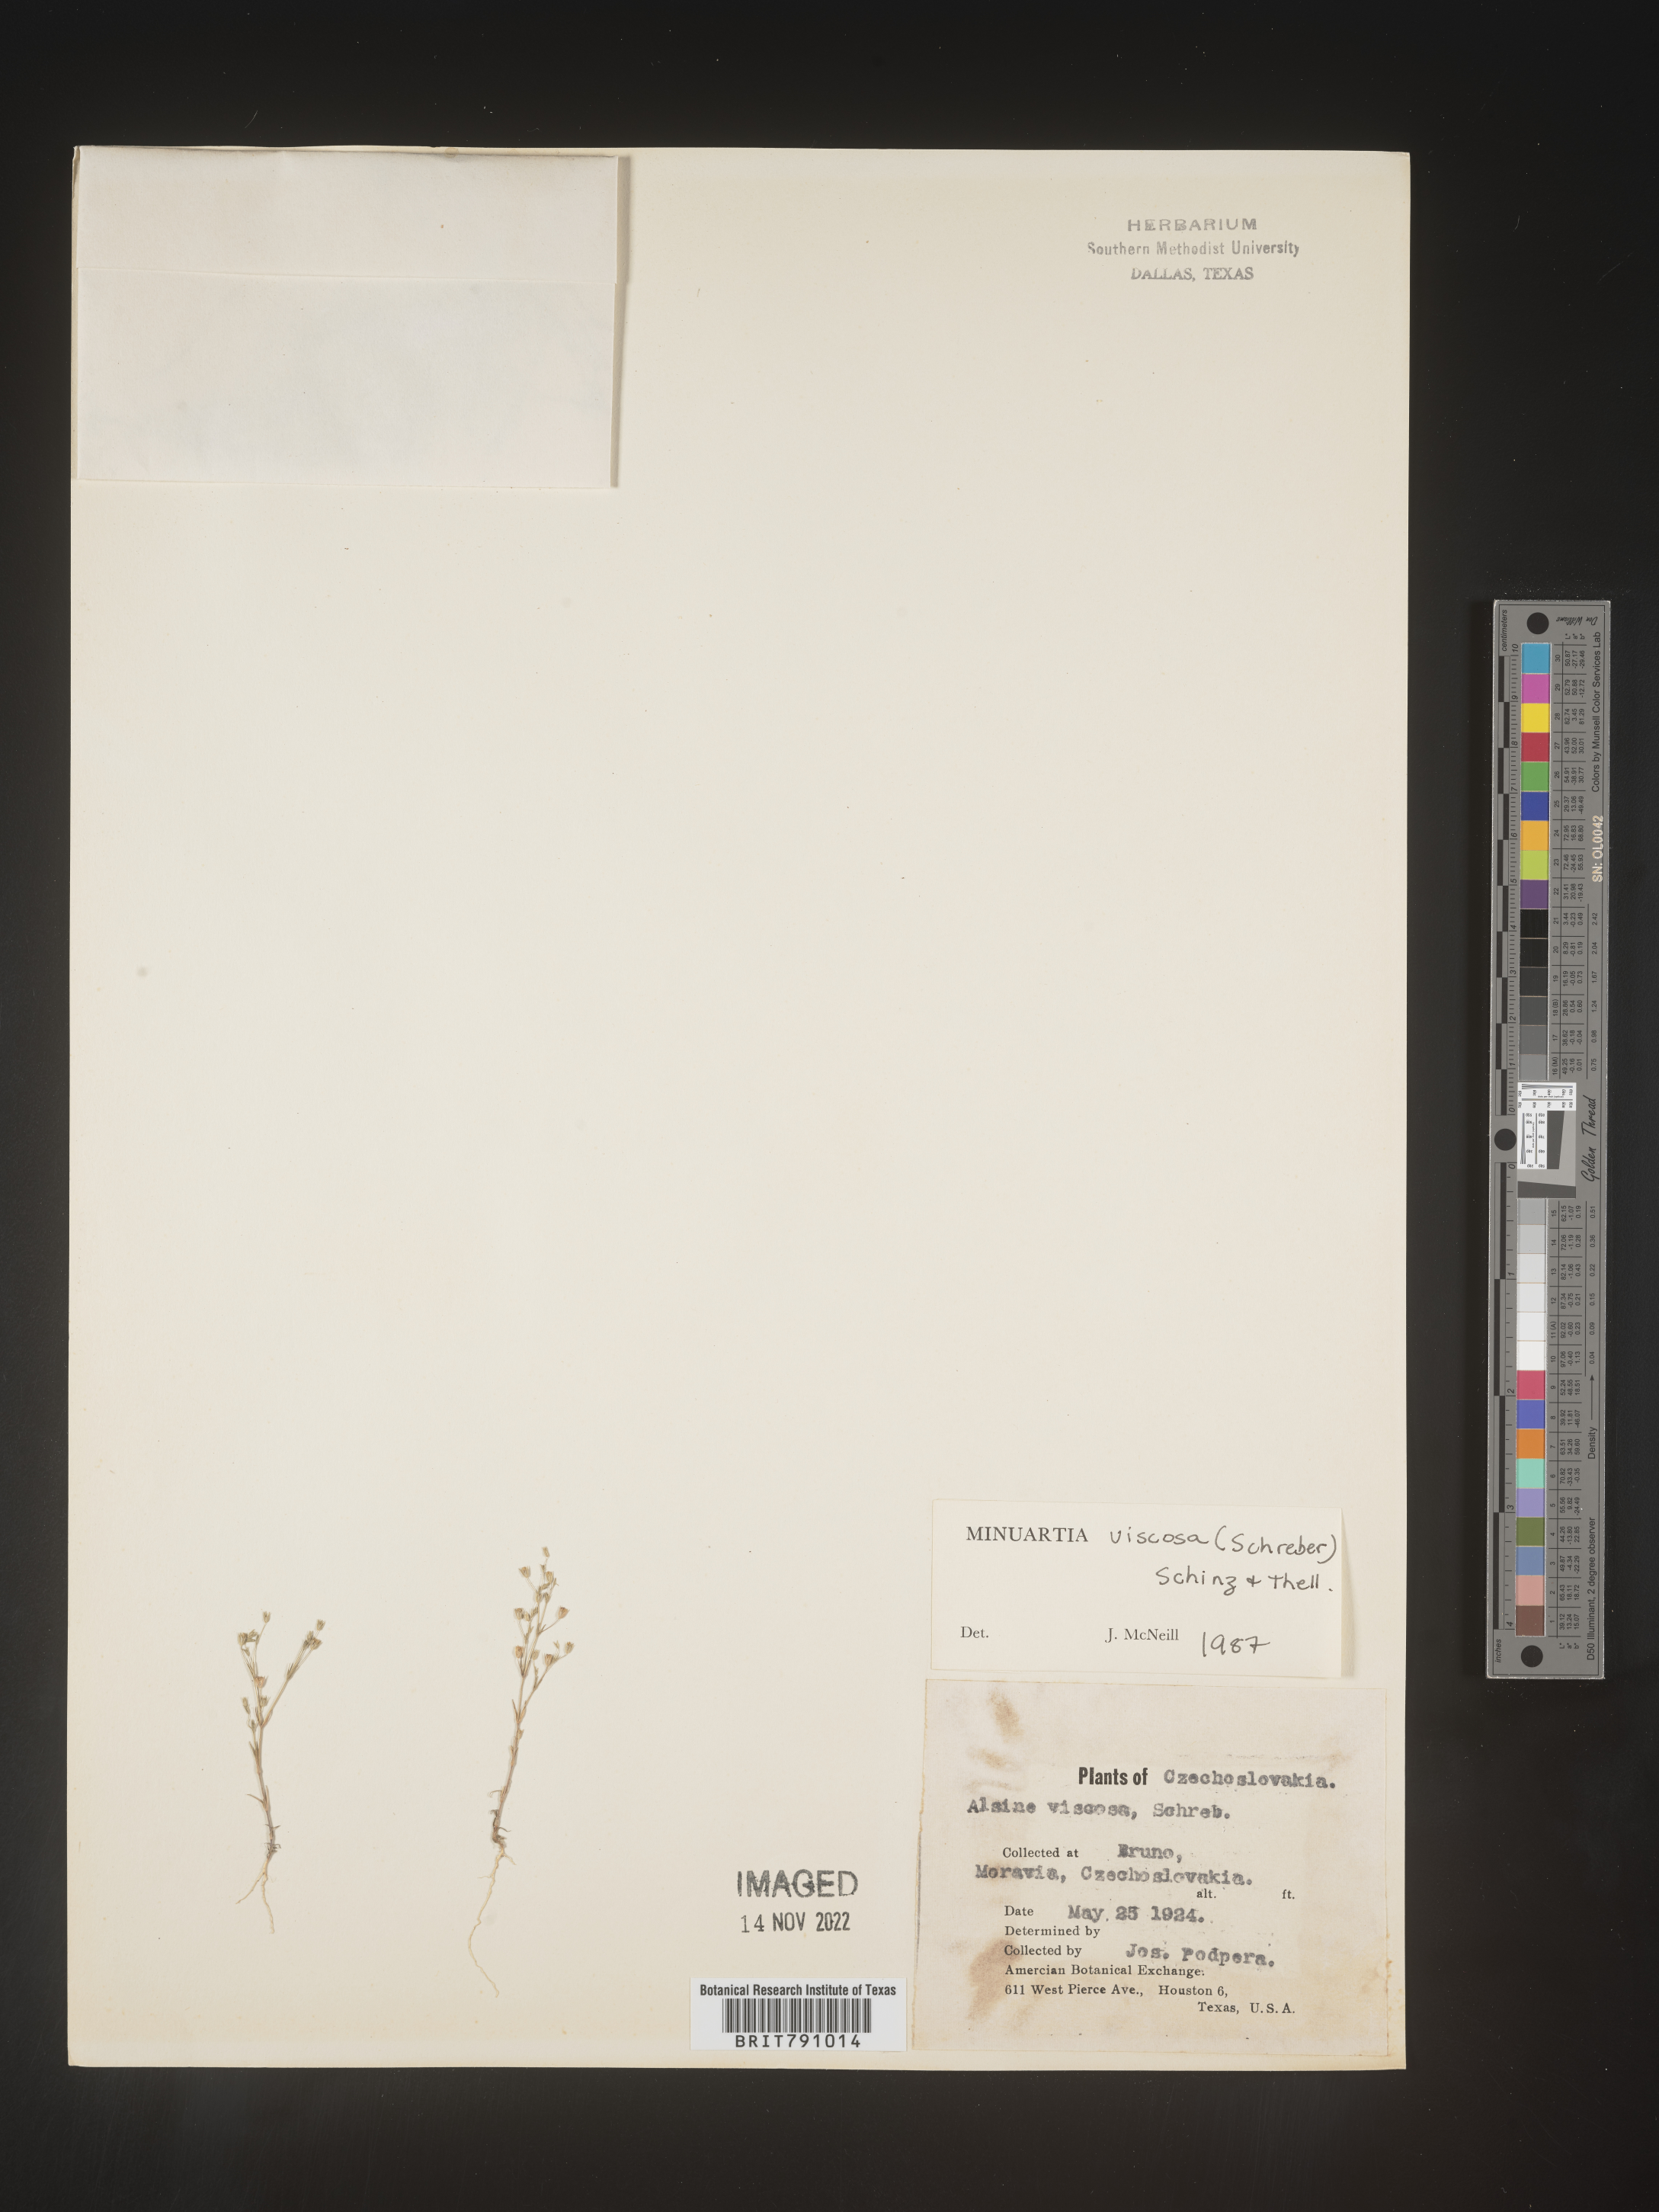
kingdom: Plantae
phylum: Tracheophyta
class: Magnoliopsida
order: Caryophyllales
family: Caryophyllaceae
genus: Minuartia
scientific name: Minuartia
